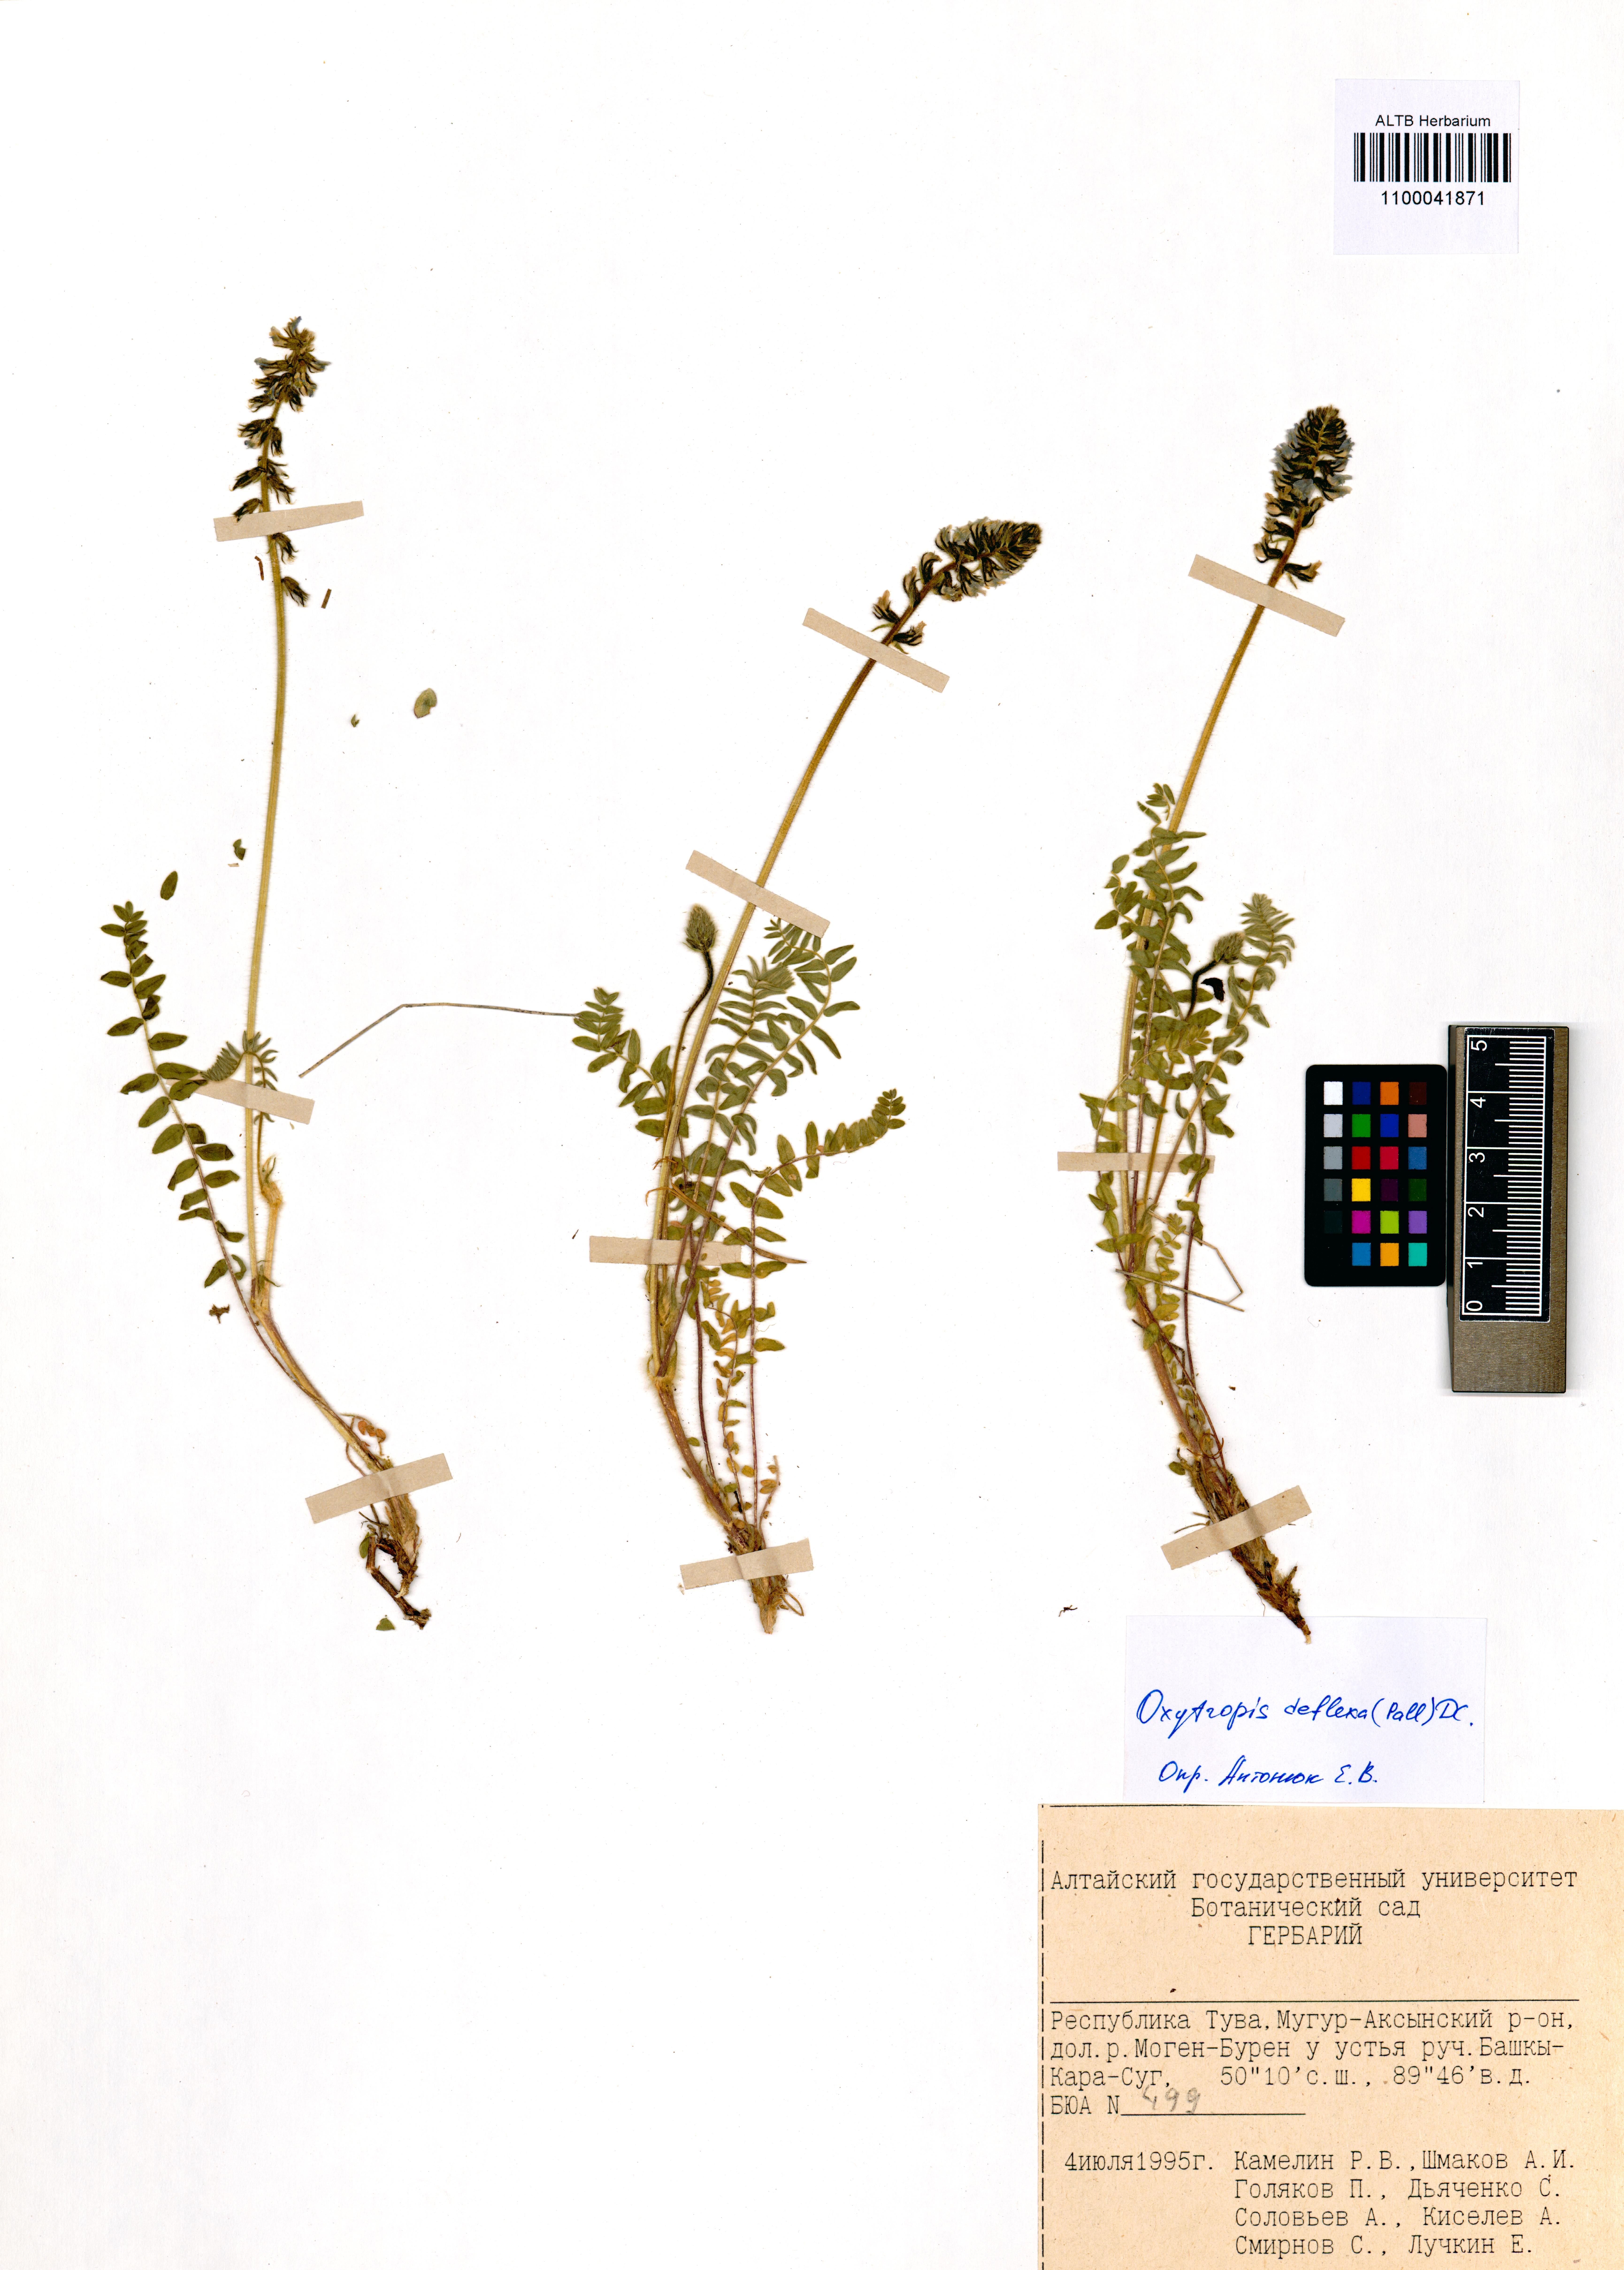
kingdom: Plantae
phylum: Tracheophyta
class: Magnoliopsida
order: Fabales
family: Fabaceae
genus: Oxytropis
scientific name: Oxytropis deflexa
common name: Stemmed oxytrope
